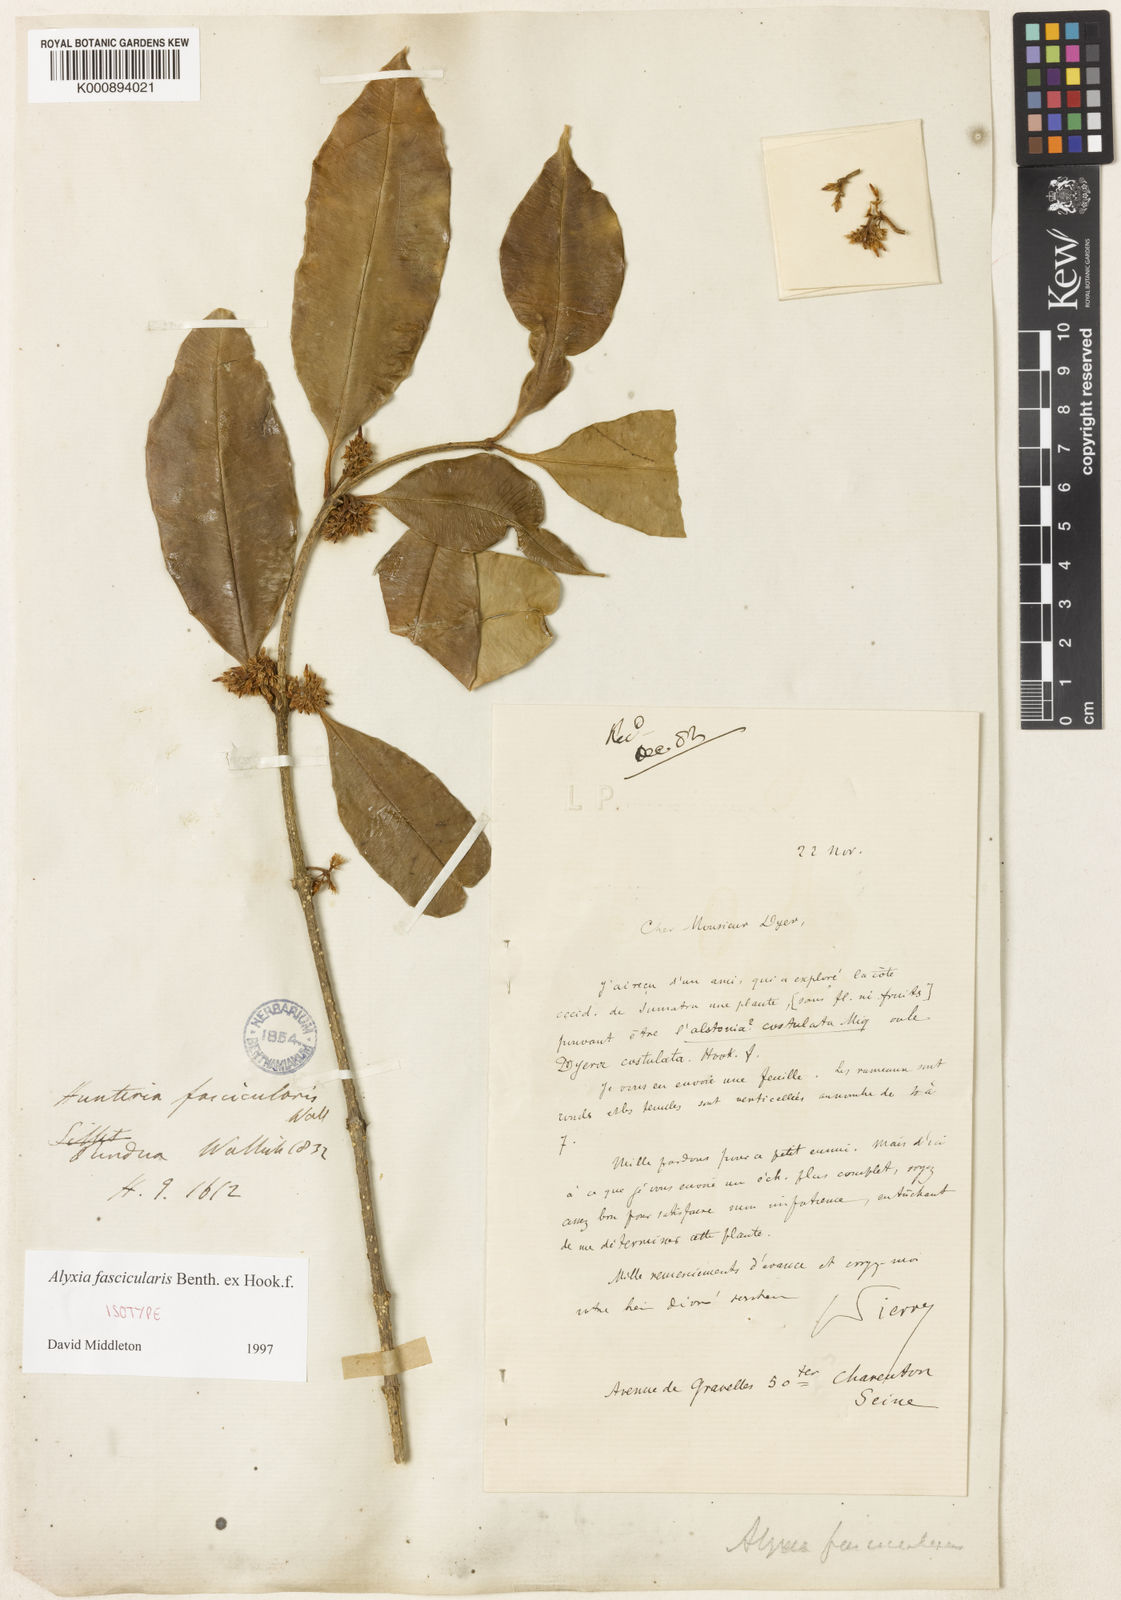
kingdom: Plantae
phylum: Tracheophyta
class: Magnoliopsida
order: Gentianales
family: Apocynaceae
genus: Alyxia
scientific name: Alyxia fascicularis
